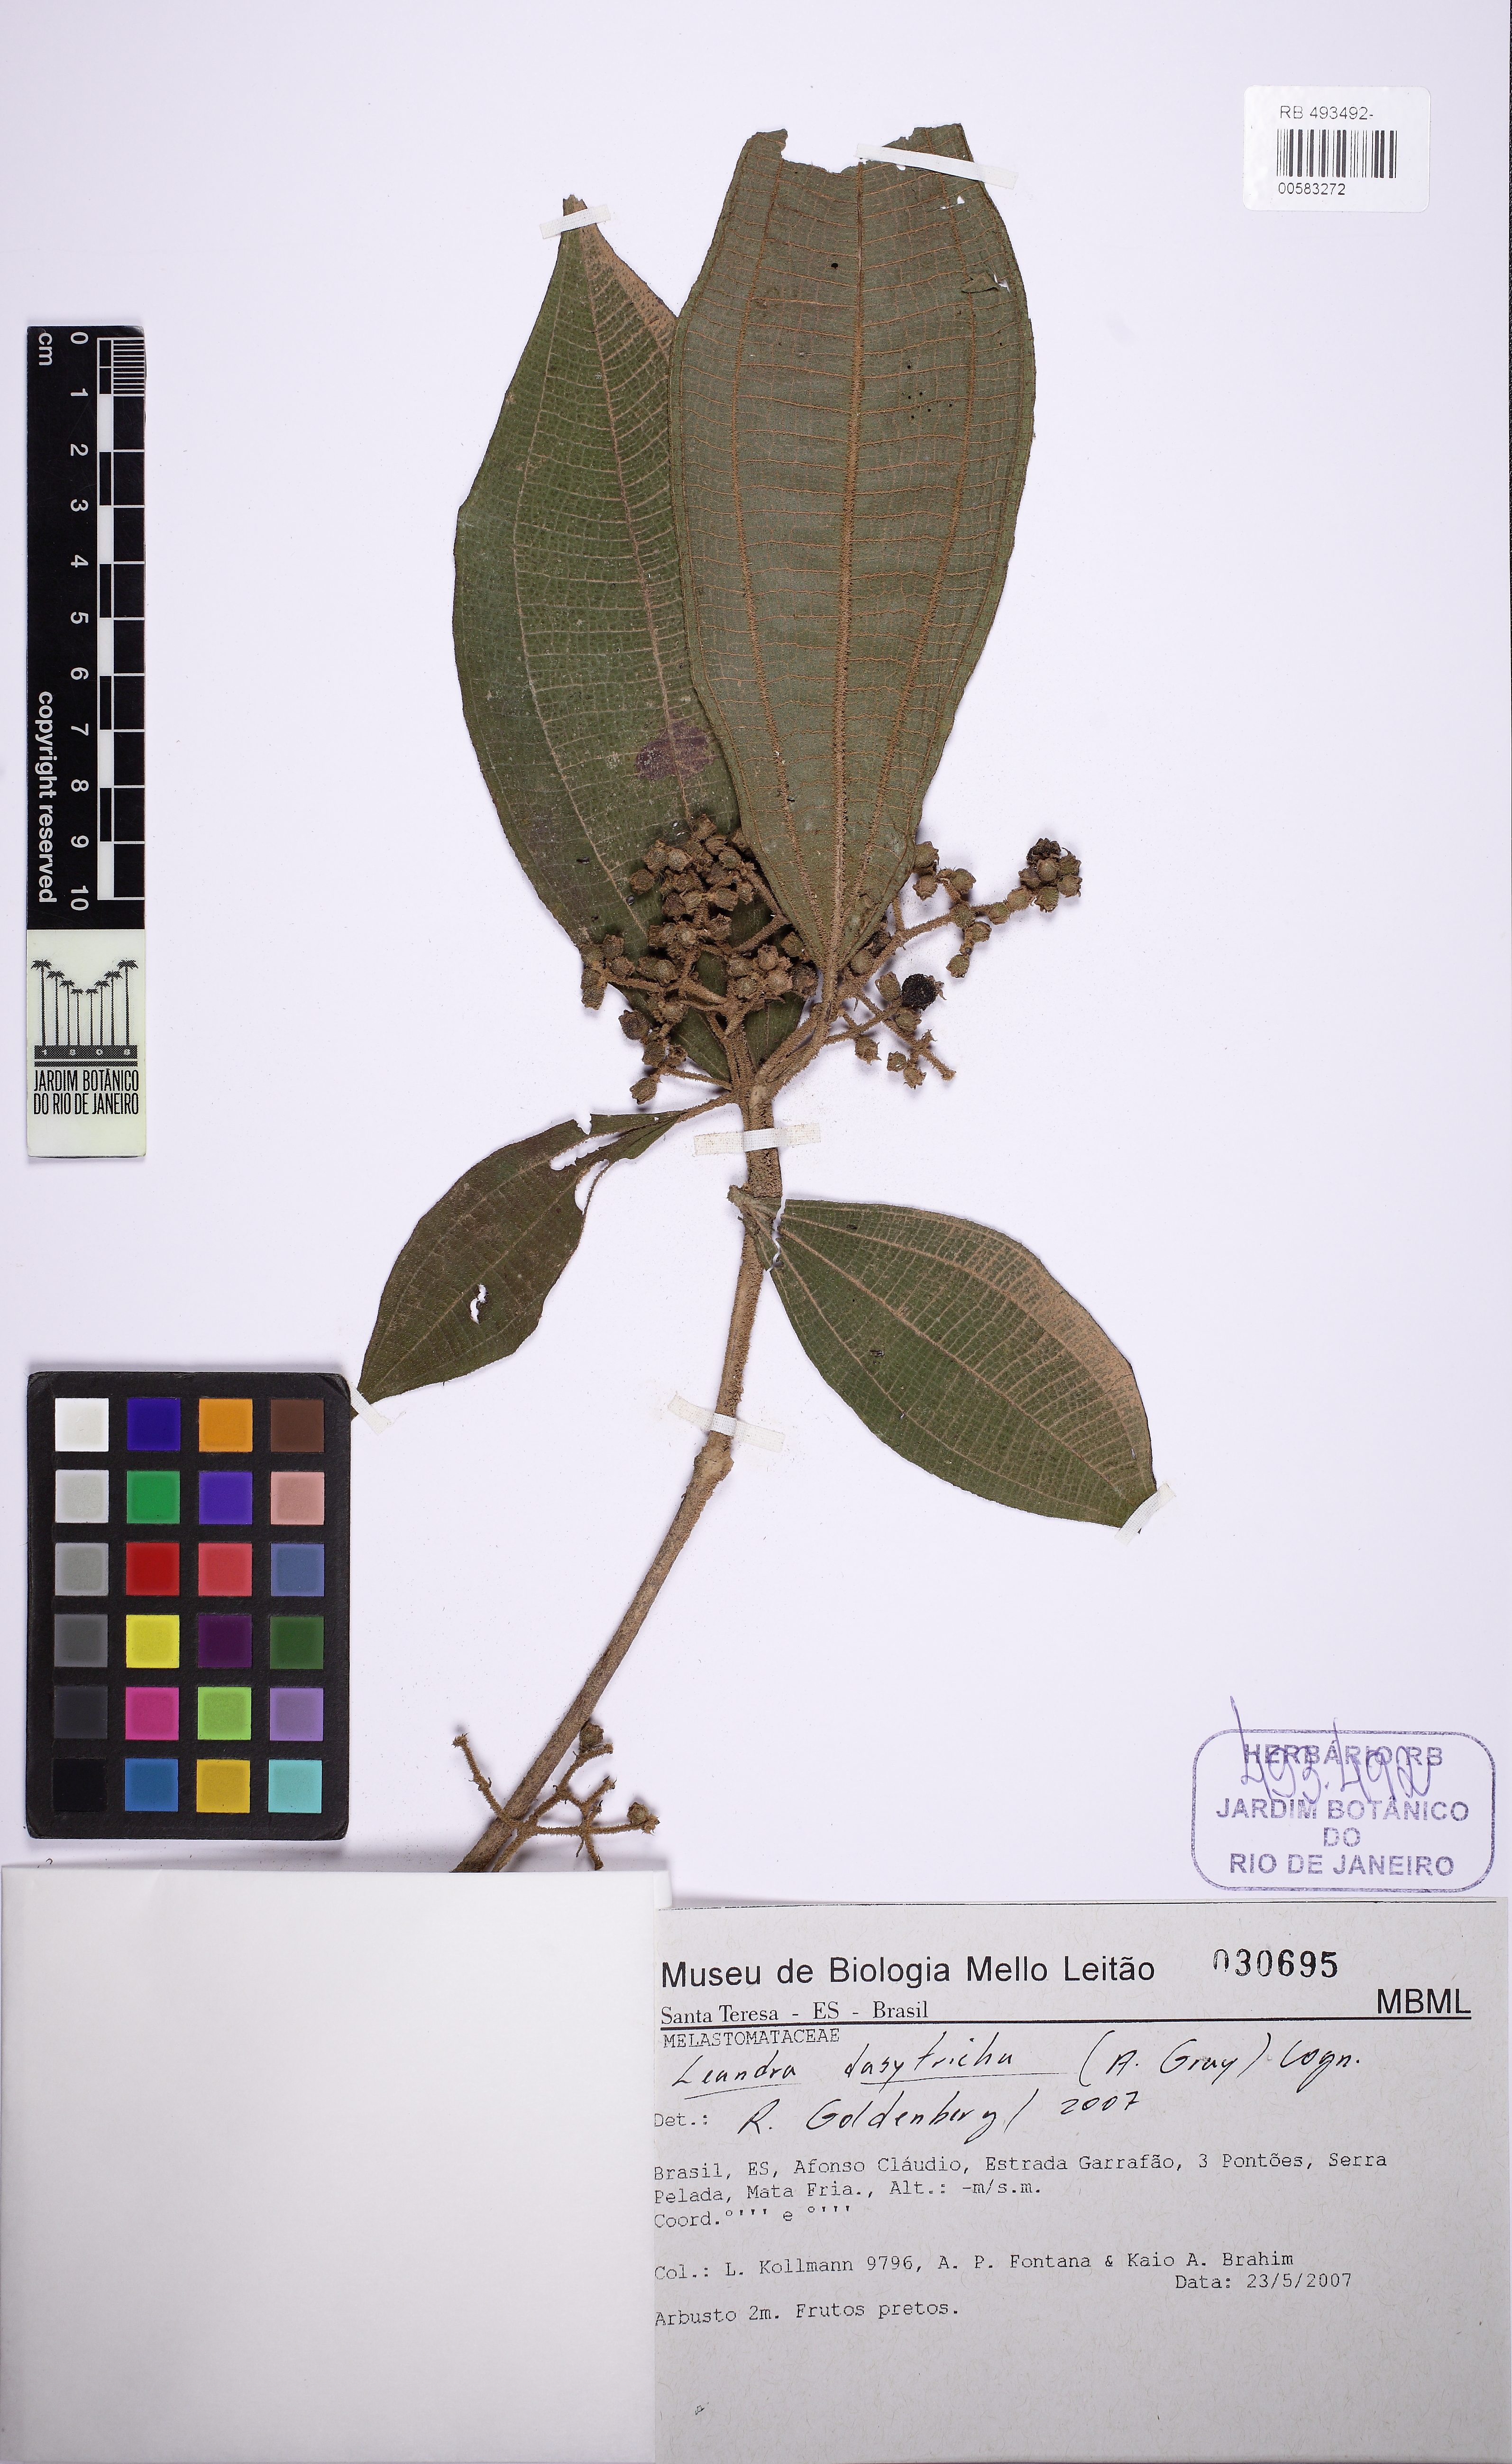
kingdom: Plantae
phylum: Tracheophyta
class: Magnoliopsida
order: Myrtales
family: Melastomataceae
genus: Miconia
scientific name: Miconia dasytricha
